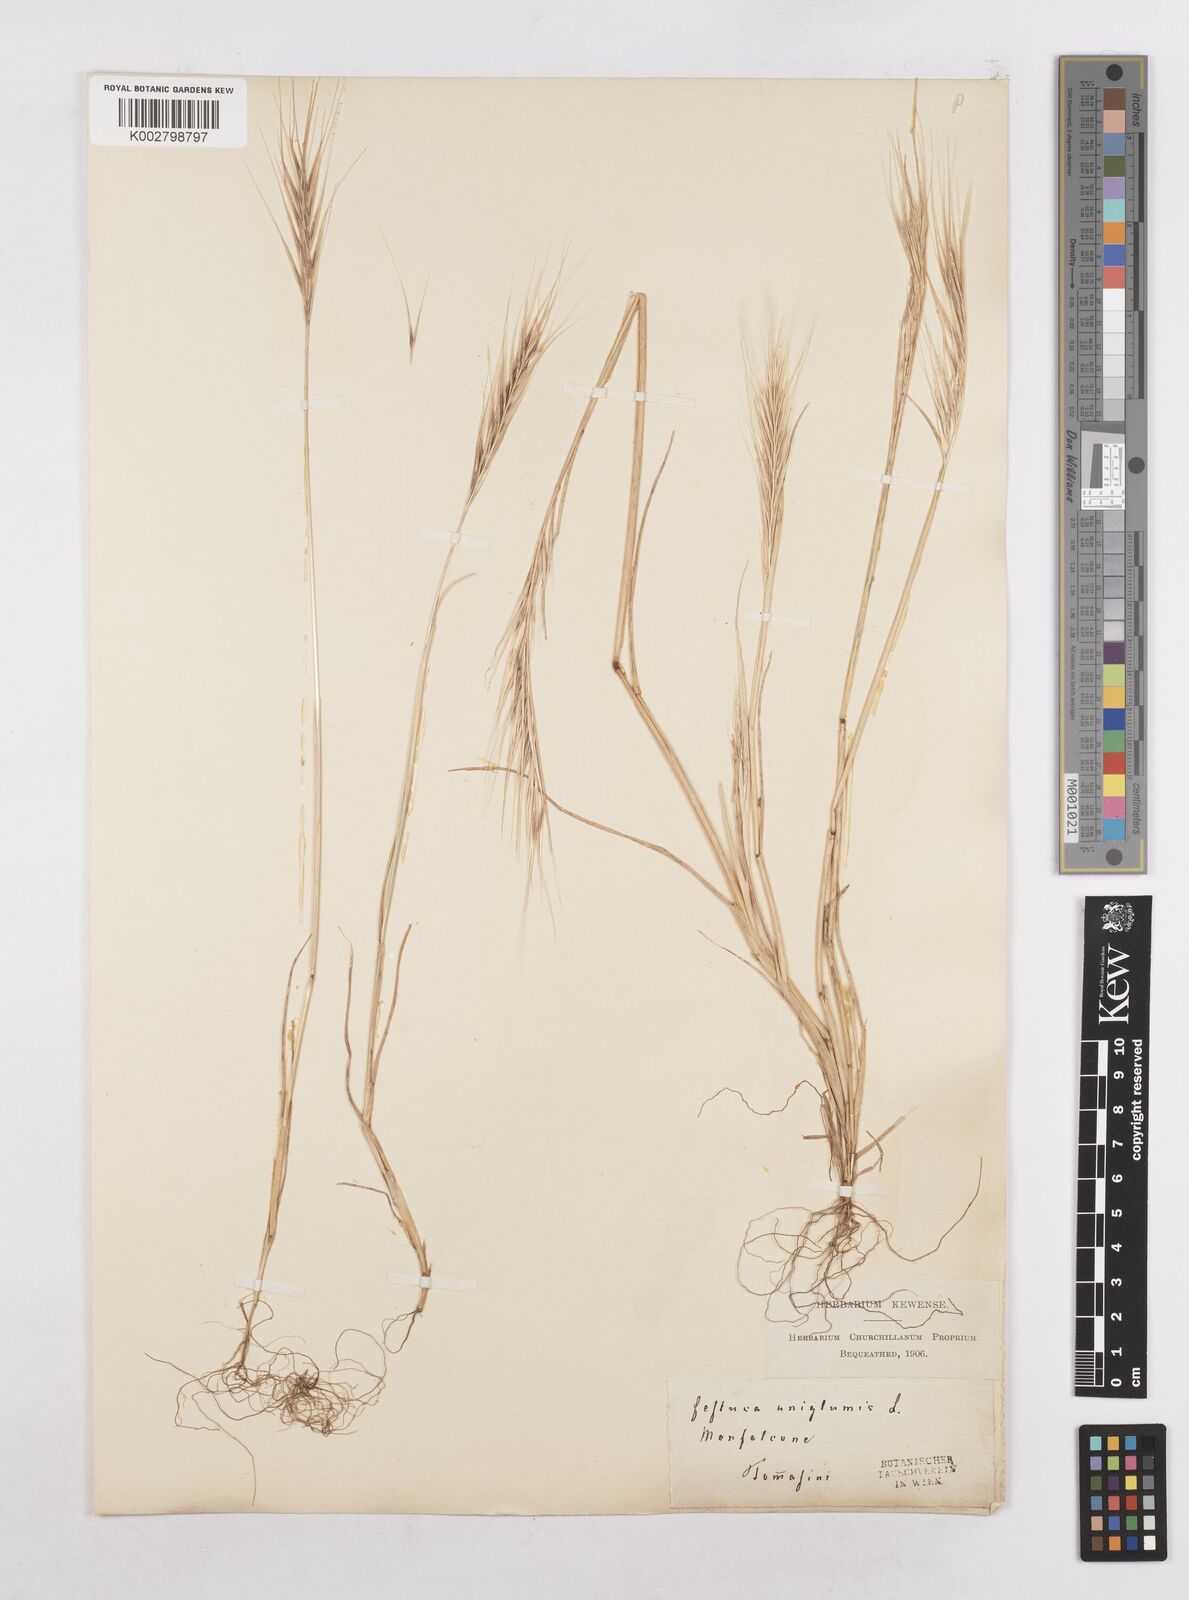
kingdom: Plantae
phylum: Tracheophyta
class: Liliopsida
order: Poales
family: Poaceae
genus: Festuca
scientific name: Festuca fasciculata
